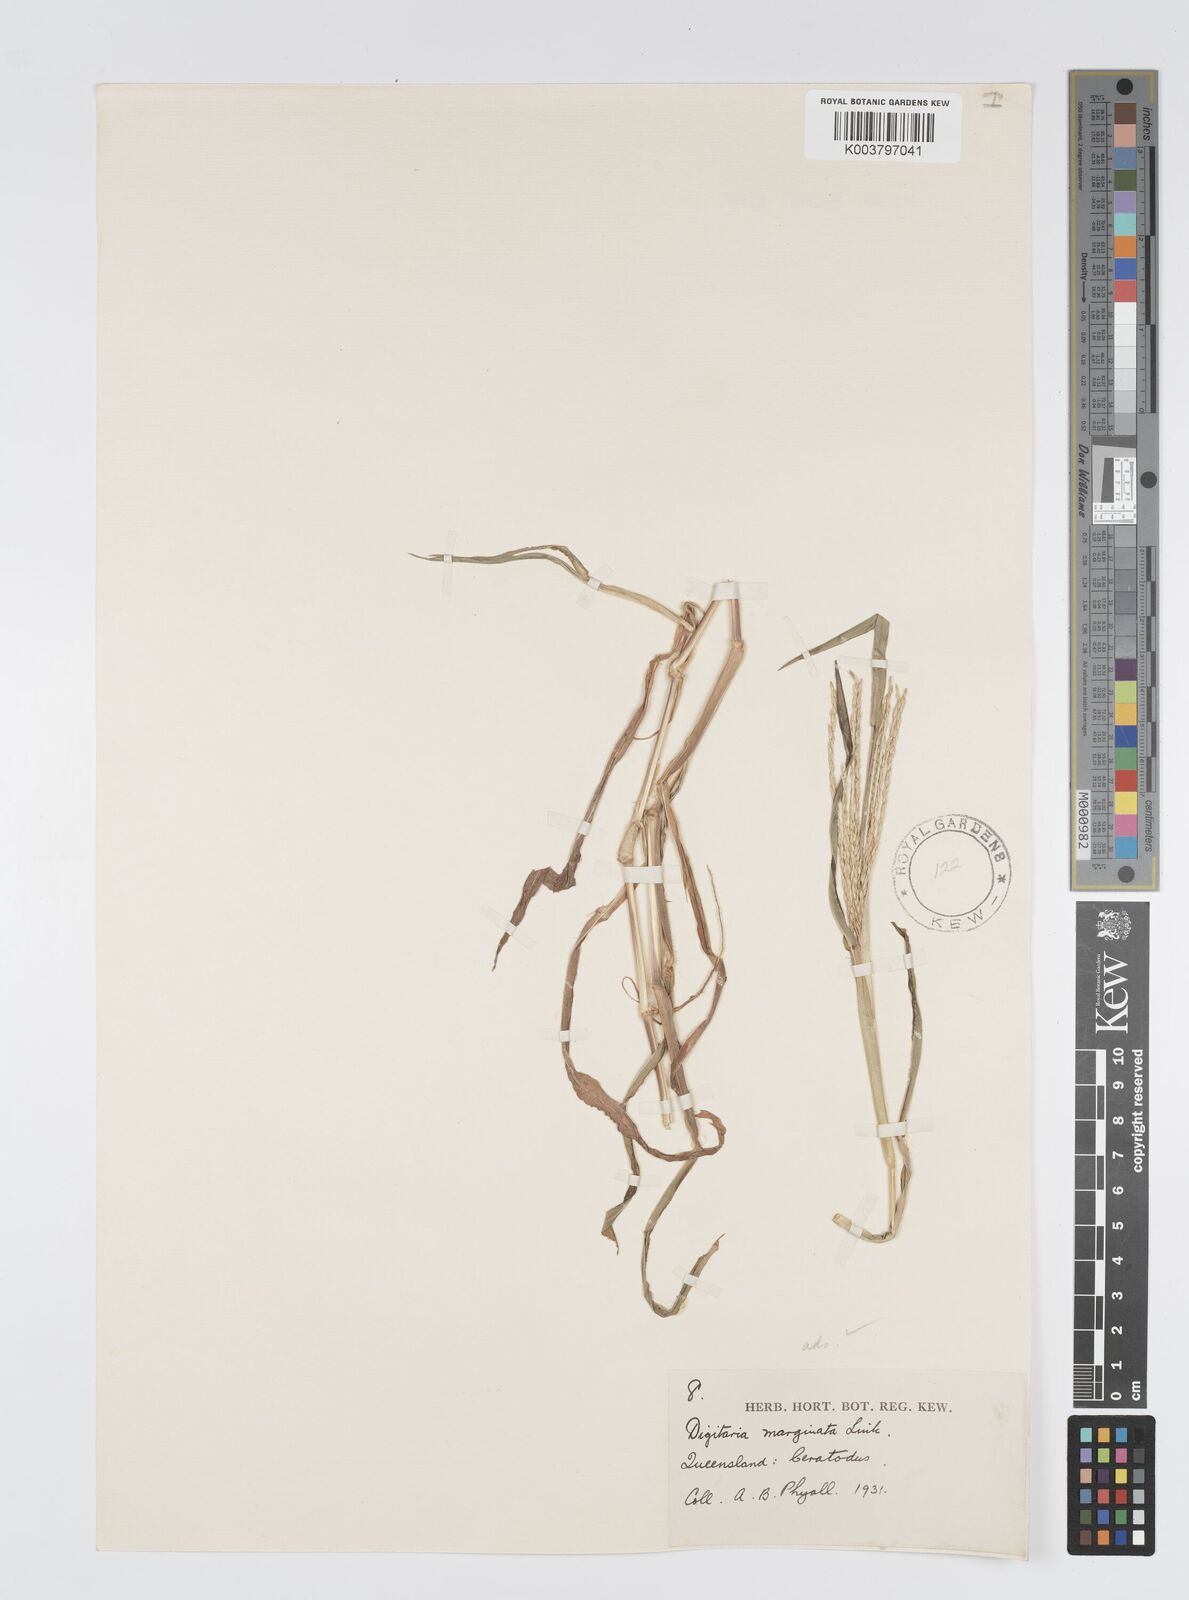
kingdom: Plantae
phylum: Tracheophyta
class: Liliopsida
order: Poales
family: Poaceae
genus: Digitaria
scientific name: Digitaria ciliaris
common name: Tropical finger-grass
